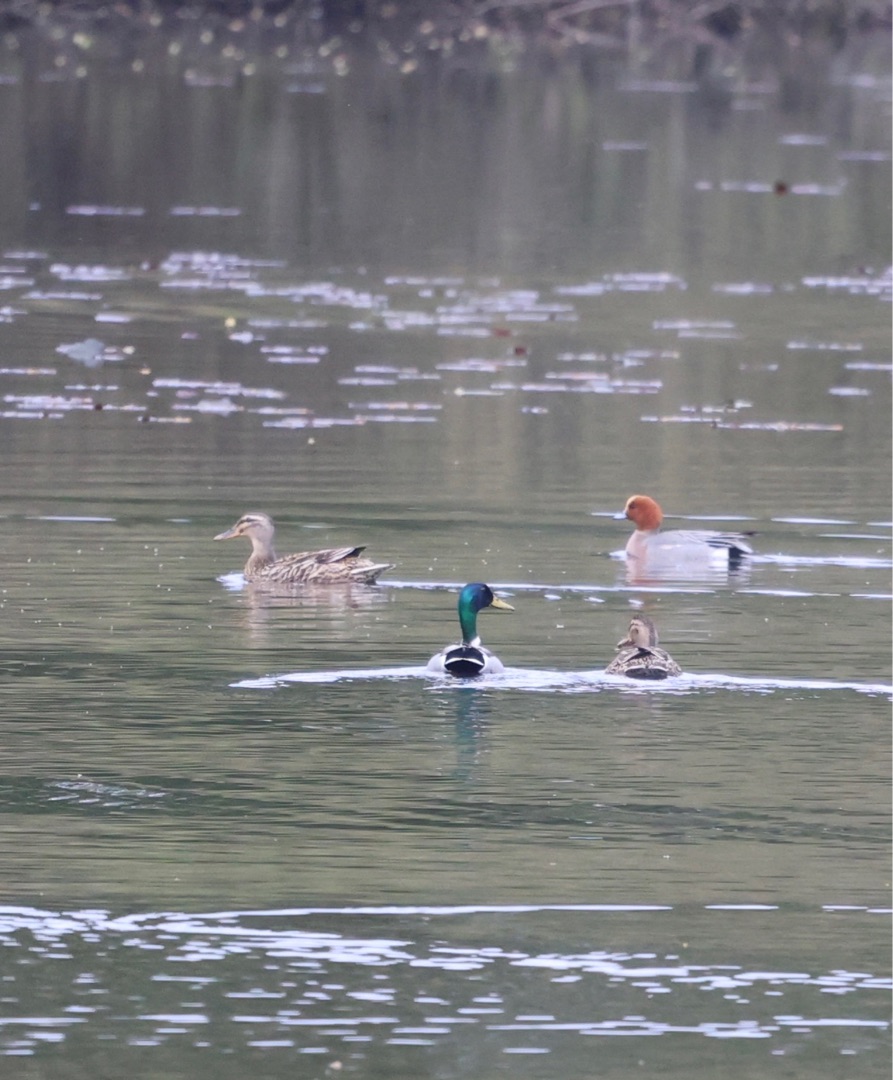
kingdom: Animalia
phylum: Chordata
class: Aves
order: Anseriformes
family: Anatidae
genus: Mareca
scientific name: Mareca penelope
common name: Pibeand
